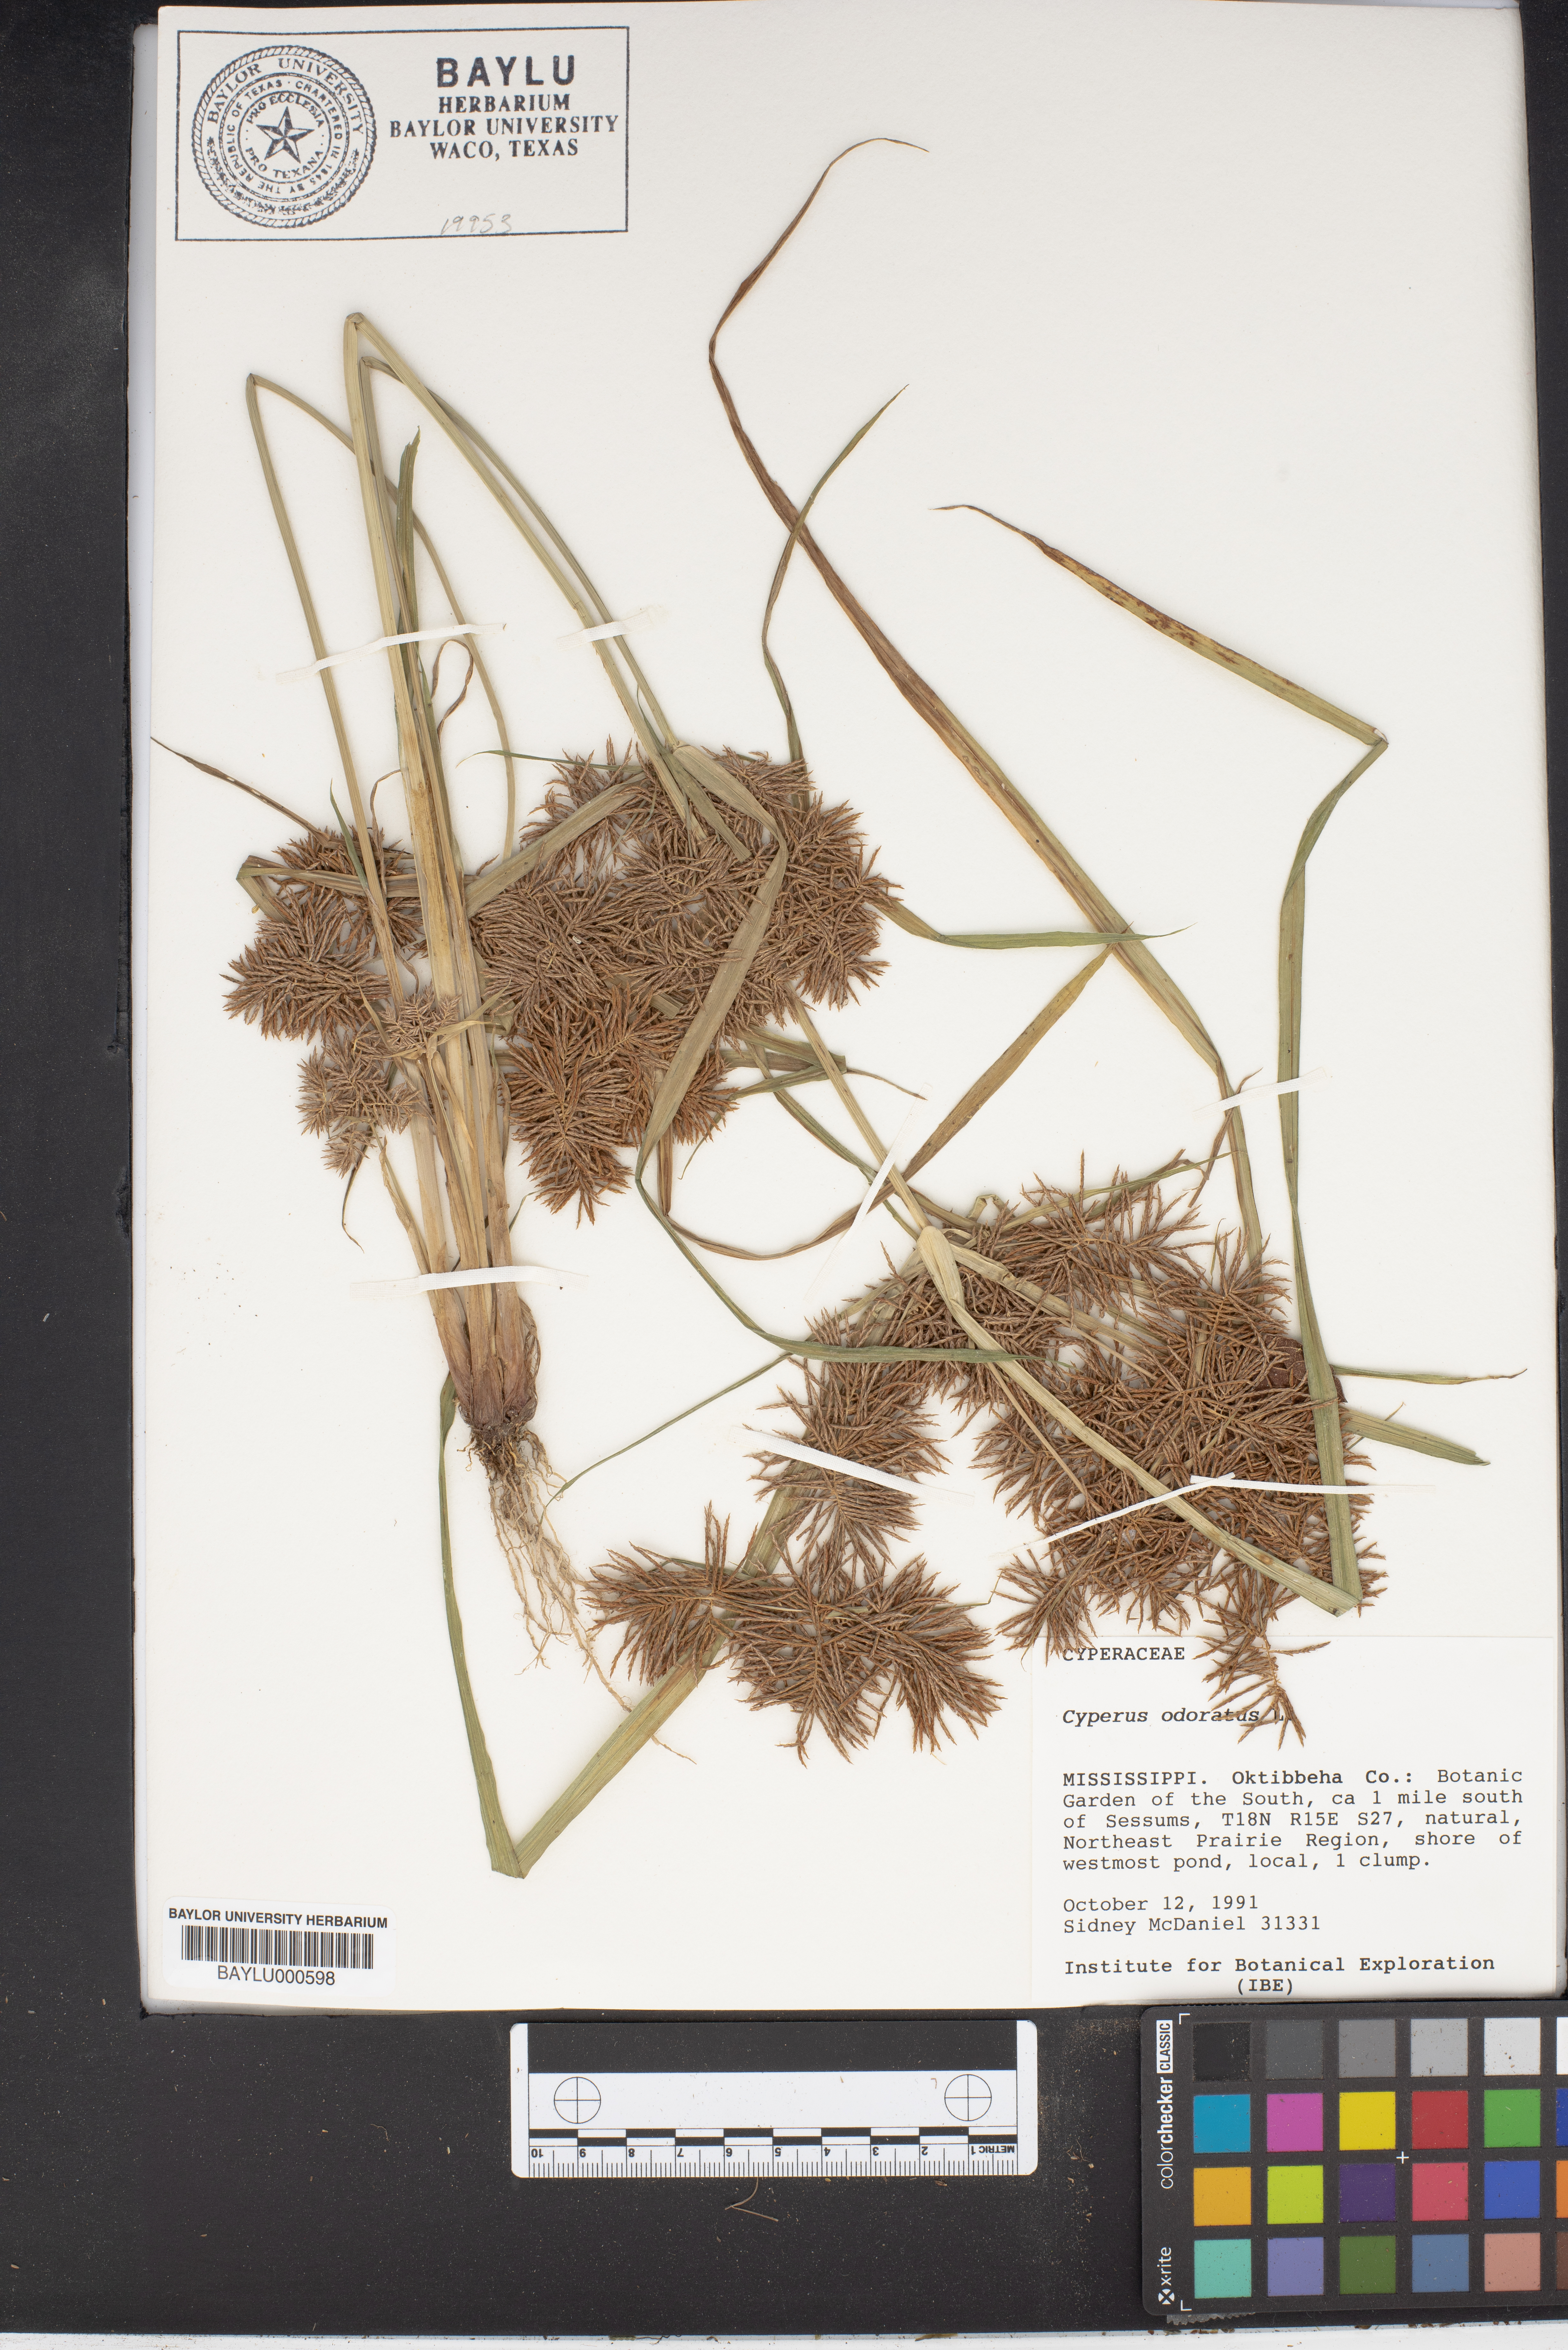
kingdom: Plantae
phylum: Tracheophyta
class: Liliopsida
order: Poales
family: Cyperaceae
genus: Cyperus
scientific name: Cyperus odoratus
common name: Fragrant flatsedge
